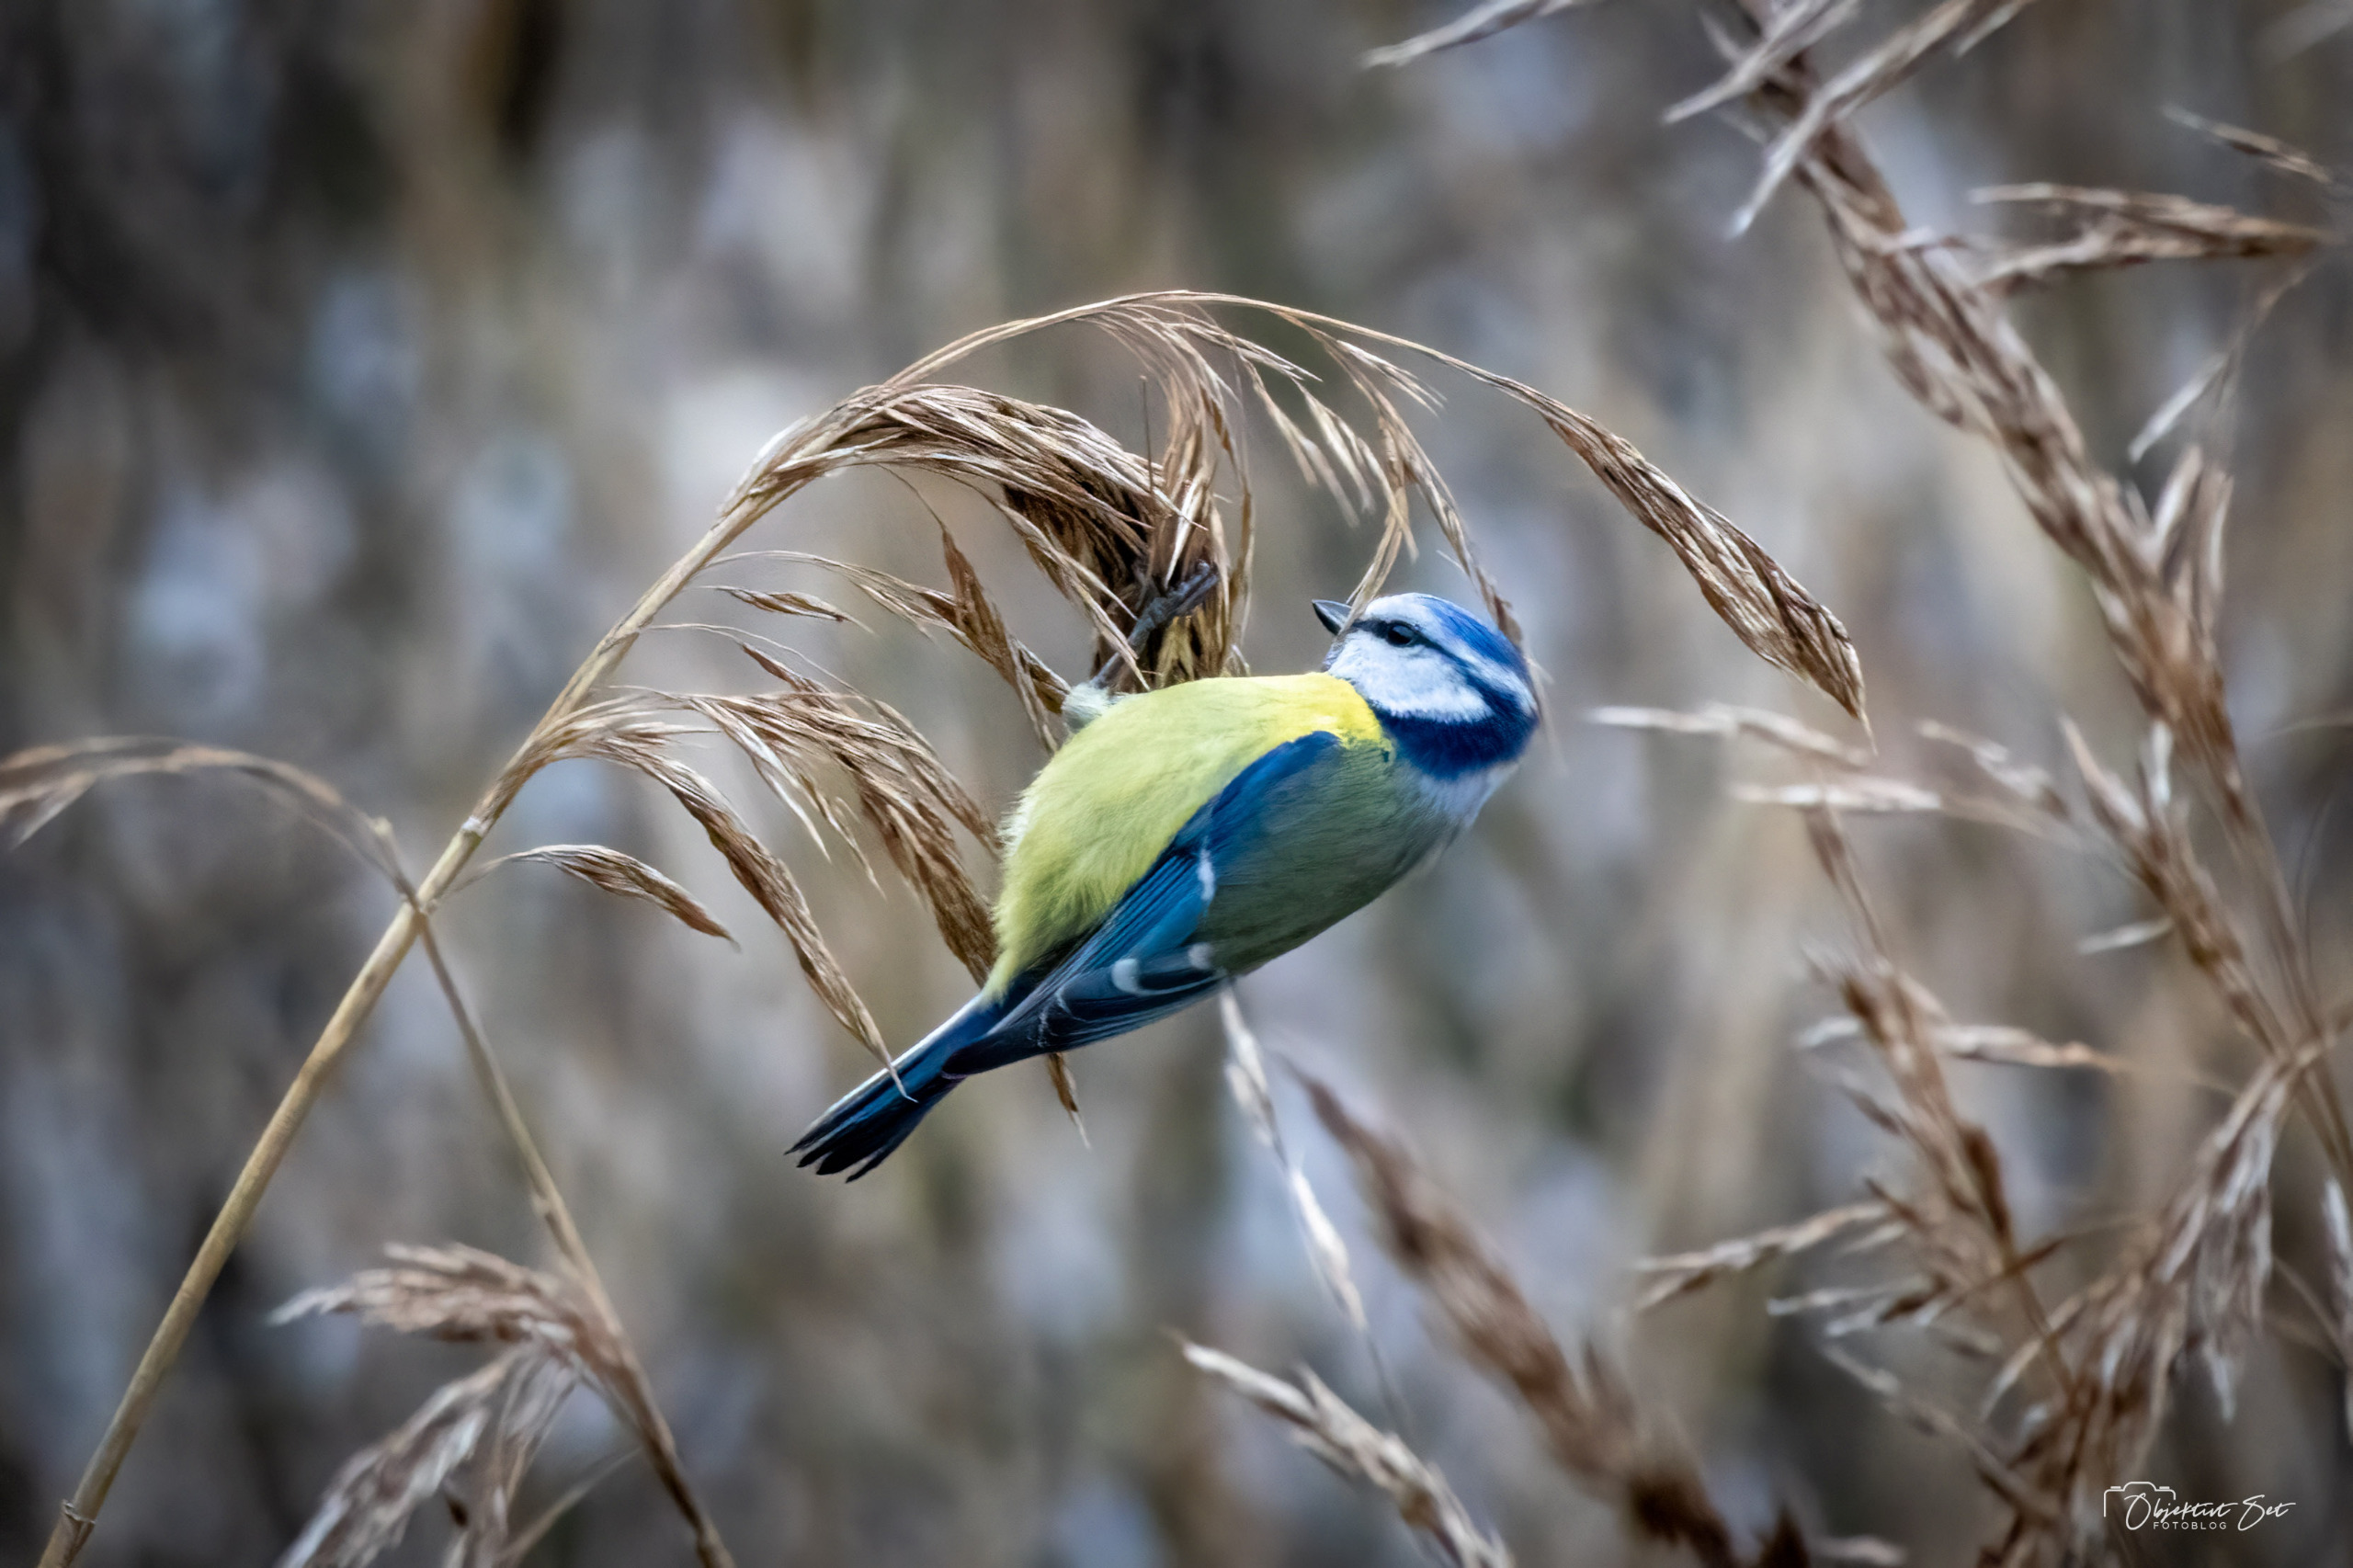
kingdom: Animalia
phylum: Chordata
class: Aves
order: Passeriformes
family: Paridae
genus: Cyanistes
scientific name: Cyanistes caeruleus
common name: Blåmejse
